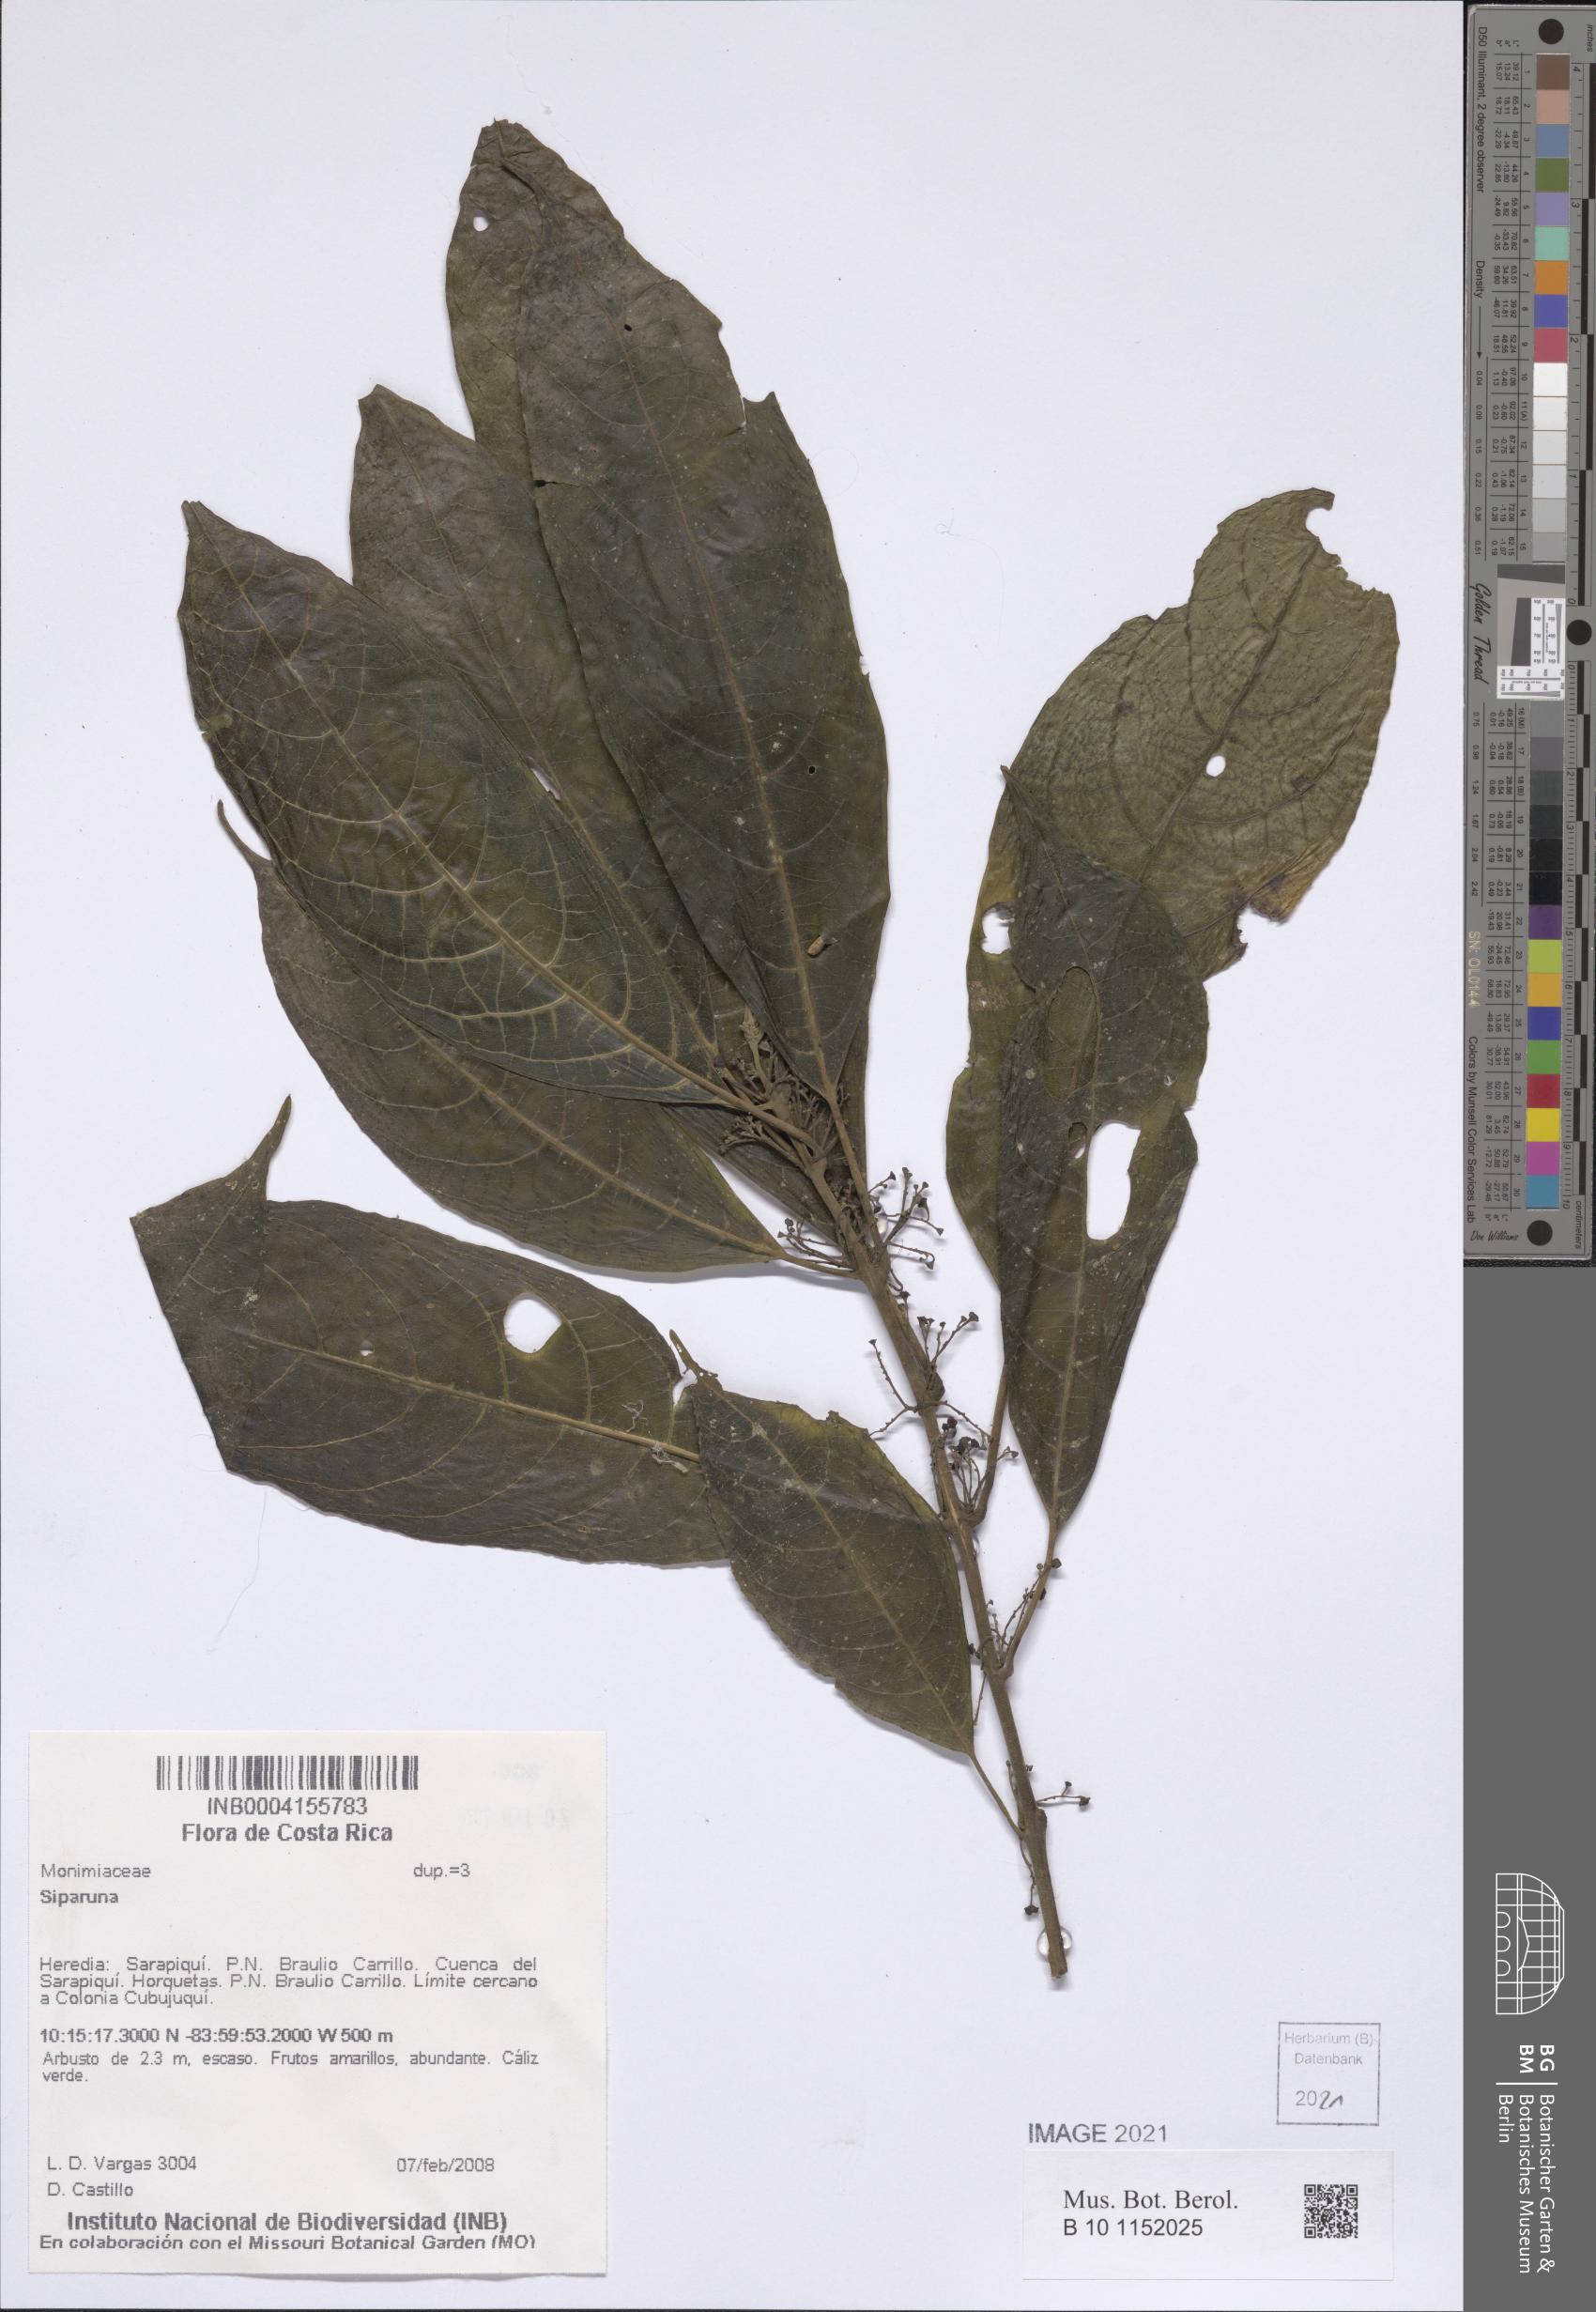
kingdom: Plantae
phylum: Tracheophyta
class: Magnoliopsida
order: Laurales
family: Siparunaceae
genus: Siparuna
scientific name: Siparuna
